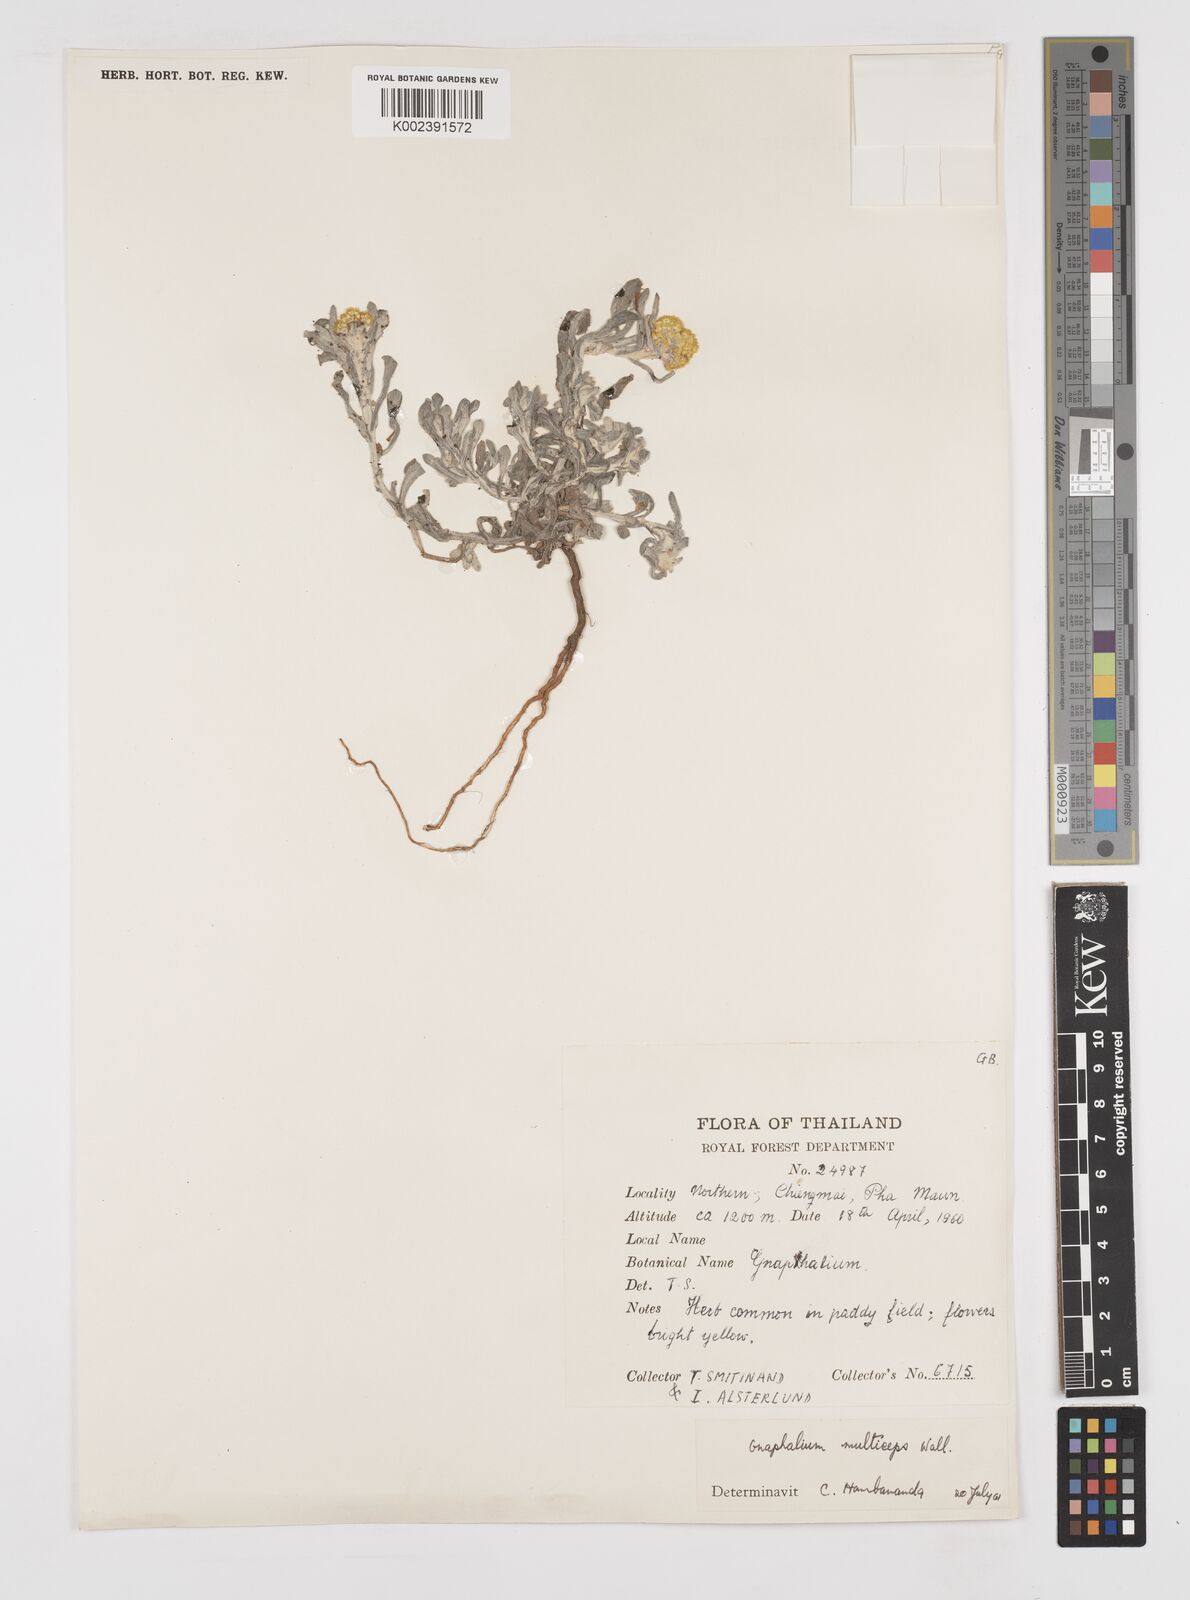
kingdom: Plantae
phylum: Tracheophyta
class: Magnoliopsida
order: Asterales
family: Asteraceae
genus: Pseudognaphalium
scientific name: Pseudognaphalium affine
